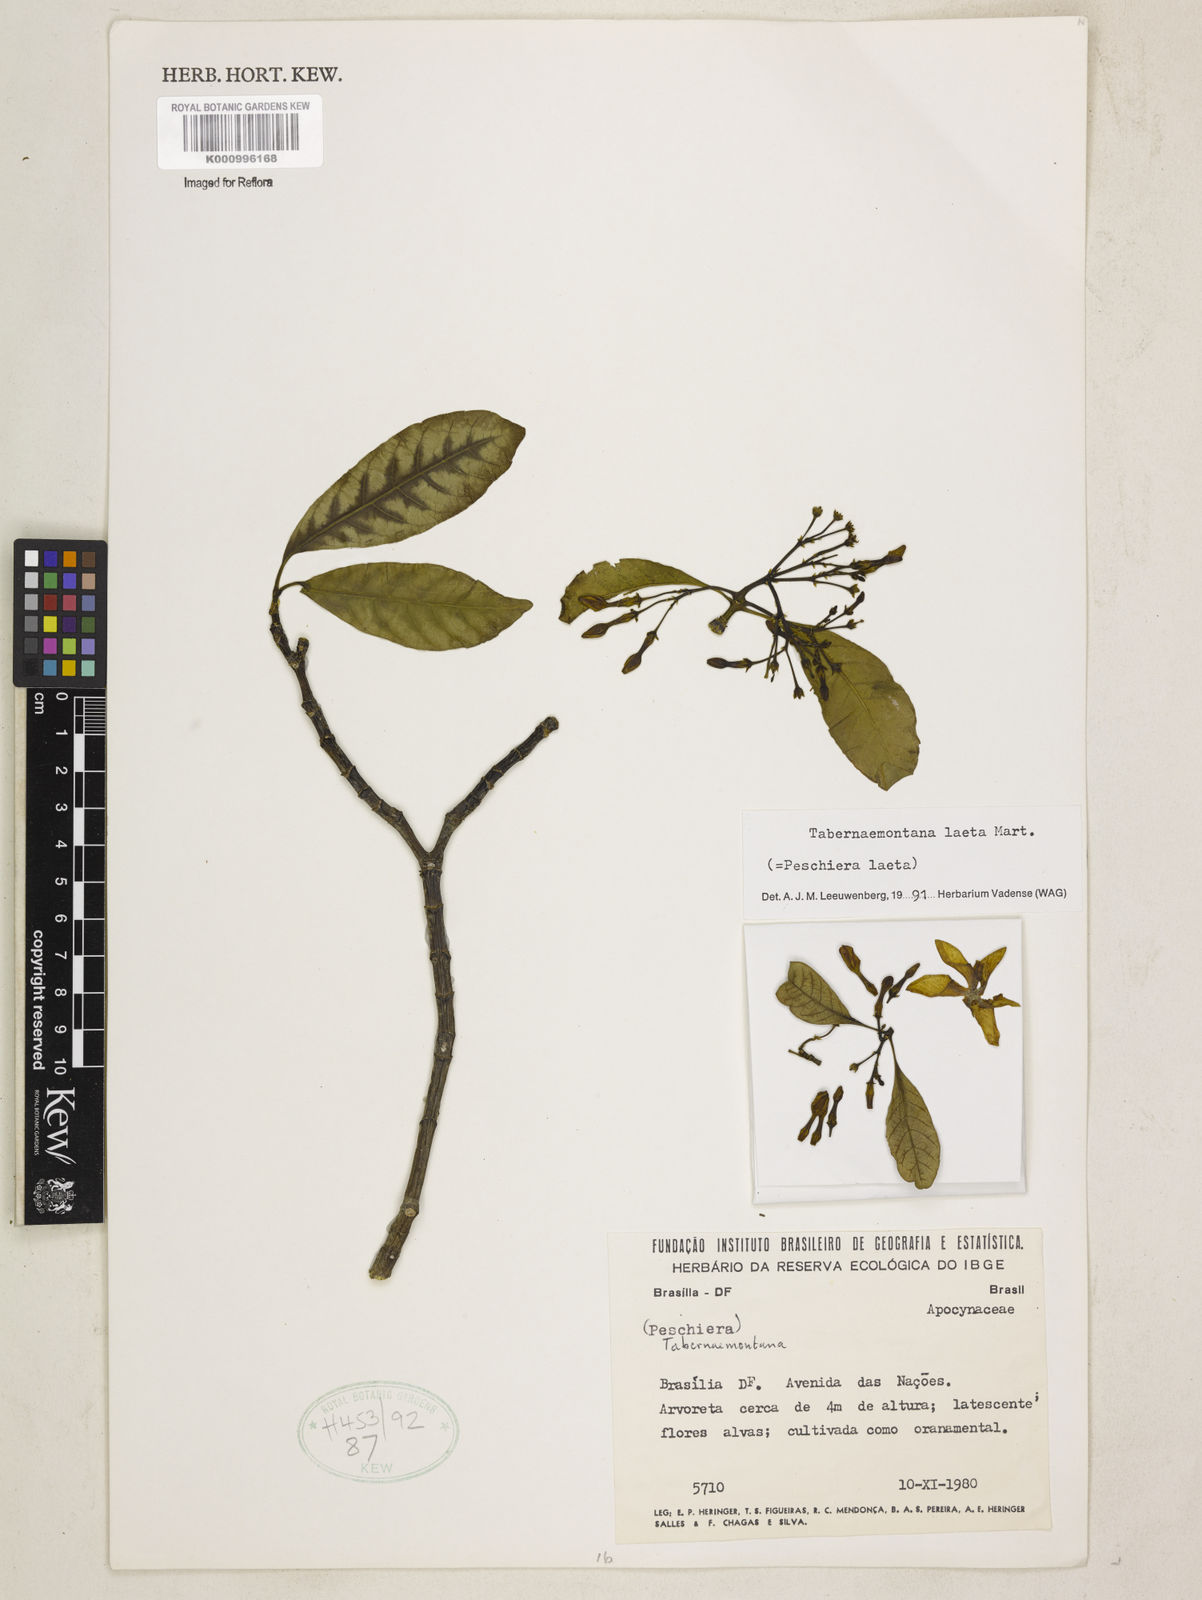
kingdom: Plantae
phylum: Tracheophyta
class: Magnoliopsida
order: Gentianales
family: Apocynaceae
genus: Tabernaemontana
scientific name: Tabernaemontana laeta
